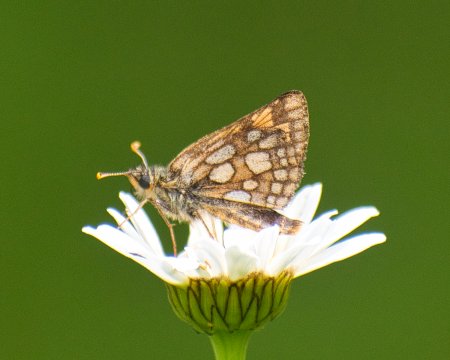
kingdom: Animalia
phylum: Arthropoda
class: Insecta
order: Lepidoptera
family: Hesperiidae
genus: Carterocephalus
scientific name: Carterocephalus skada
